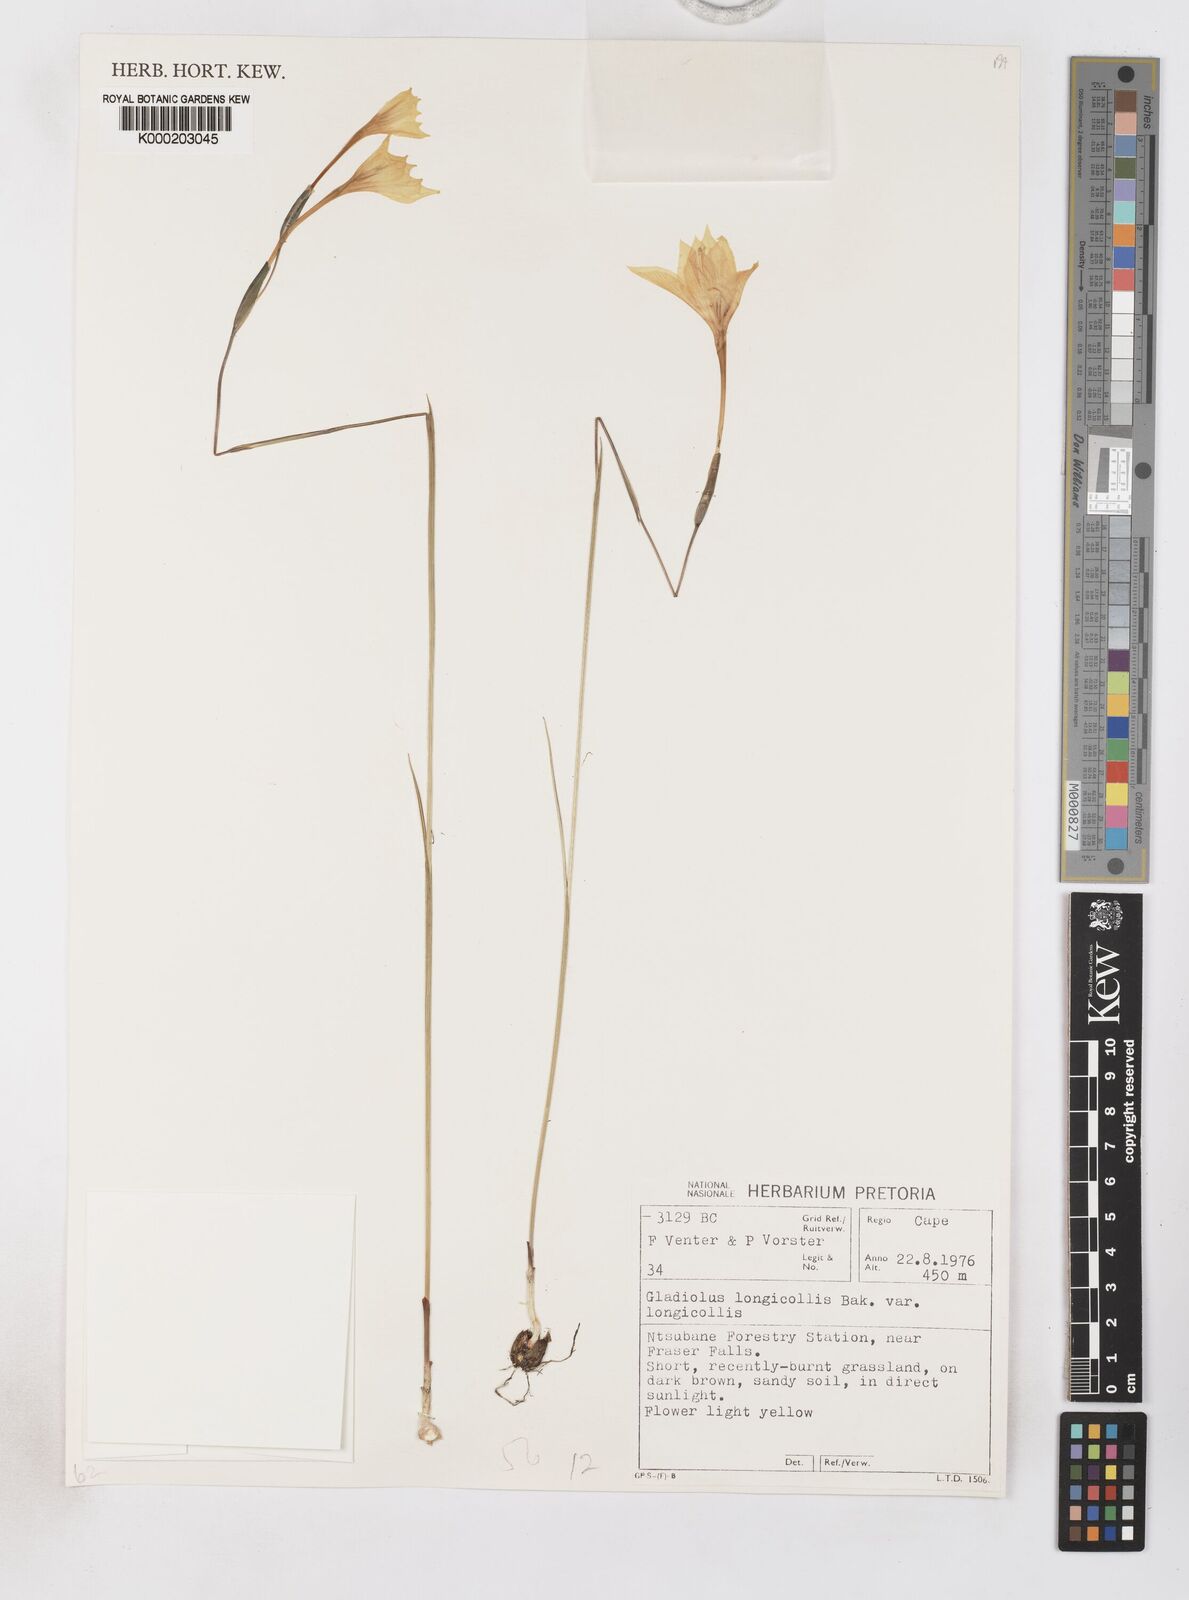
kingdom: Plantae
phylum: Tracheophyta
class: Liliopsida
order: Asparagales
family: Iridaceae
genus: Gladiolus
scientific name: Gladiolus longicollis
